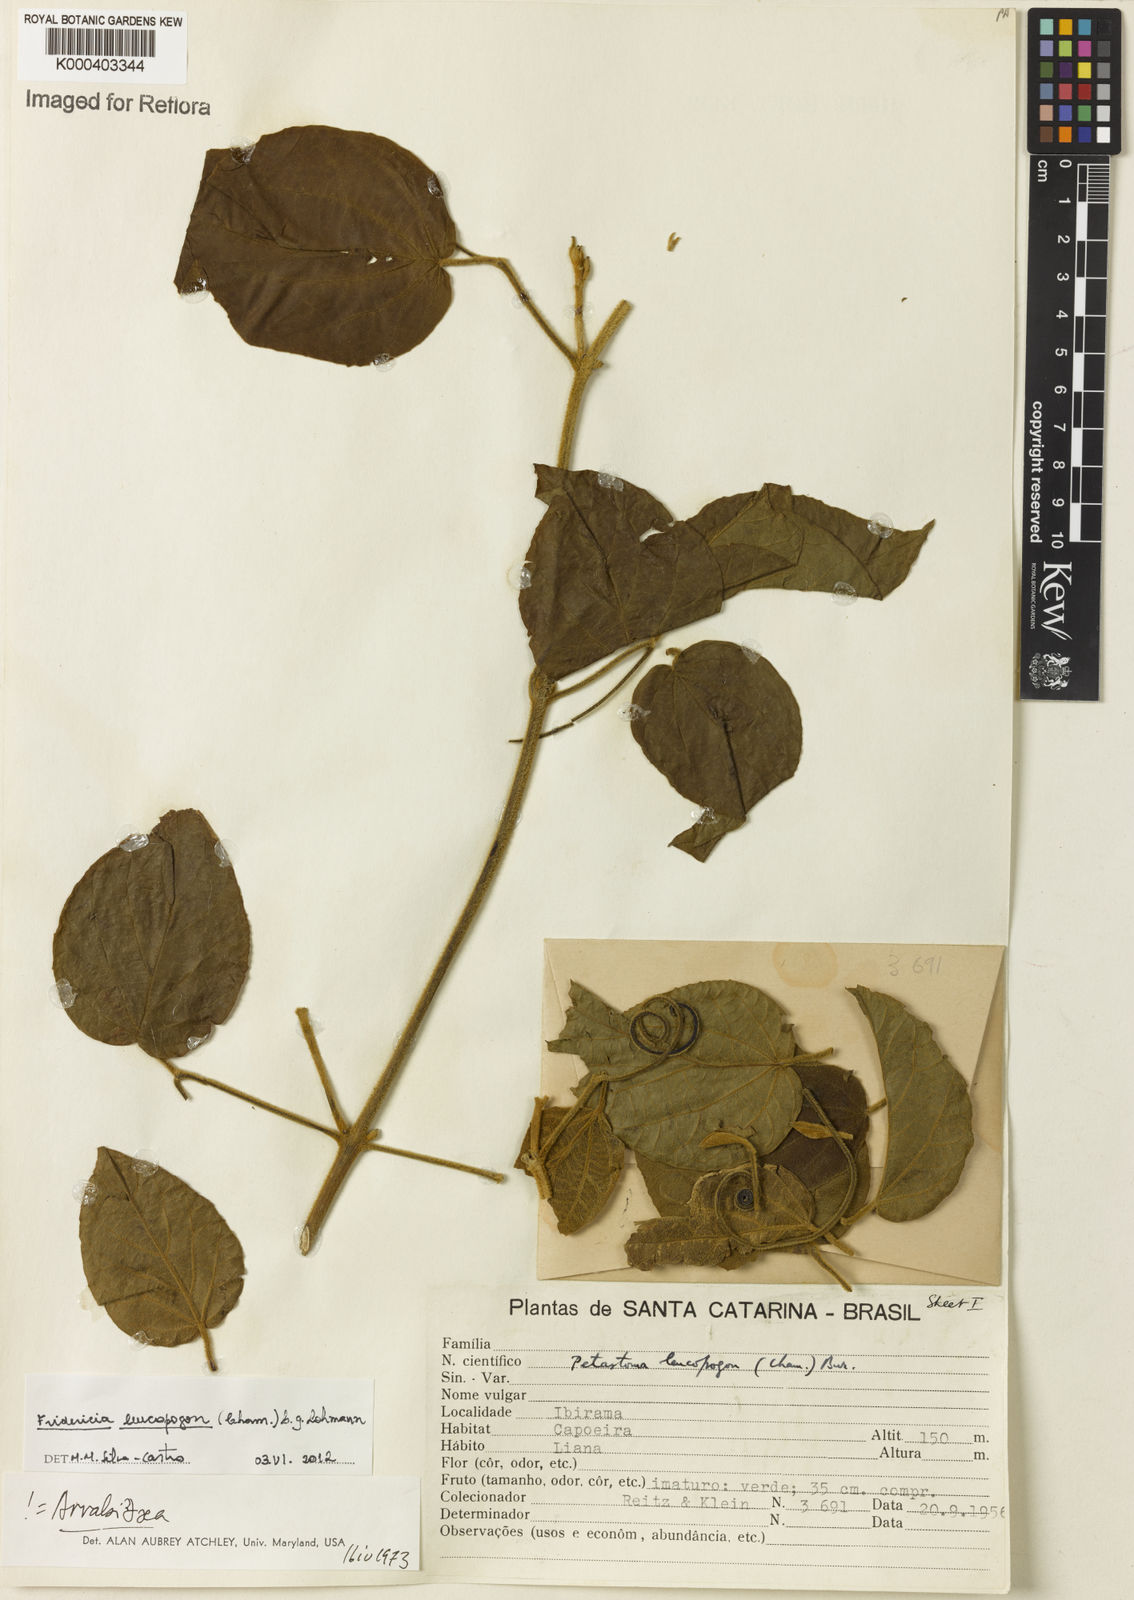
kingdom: Plantae
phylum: Tracheophyta
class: Magnoliopsida
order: Lamiales
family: Bignoniaceae
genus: Fridericia
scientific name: Fridericia leucopogon
